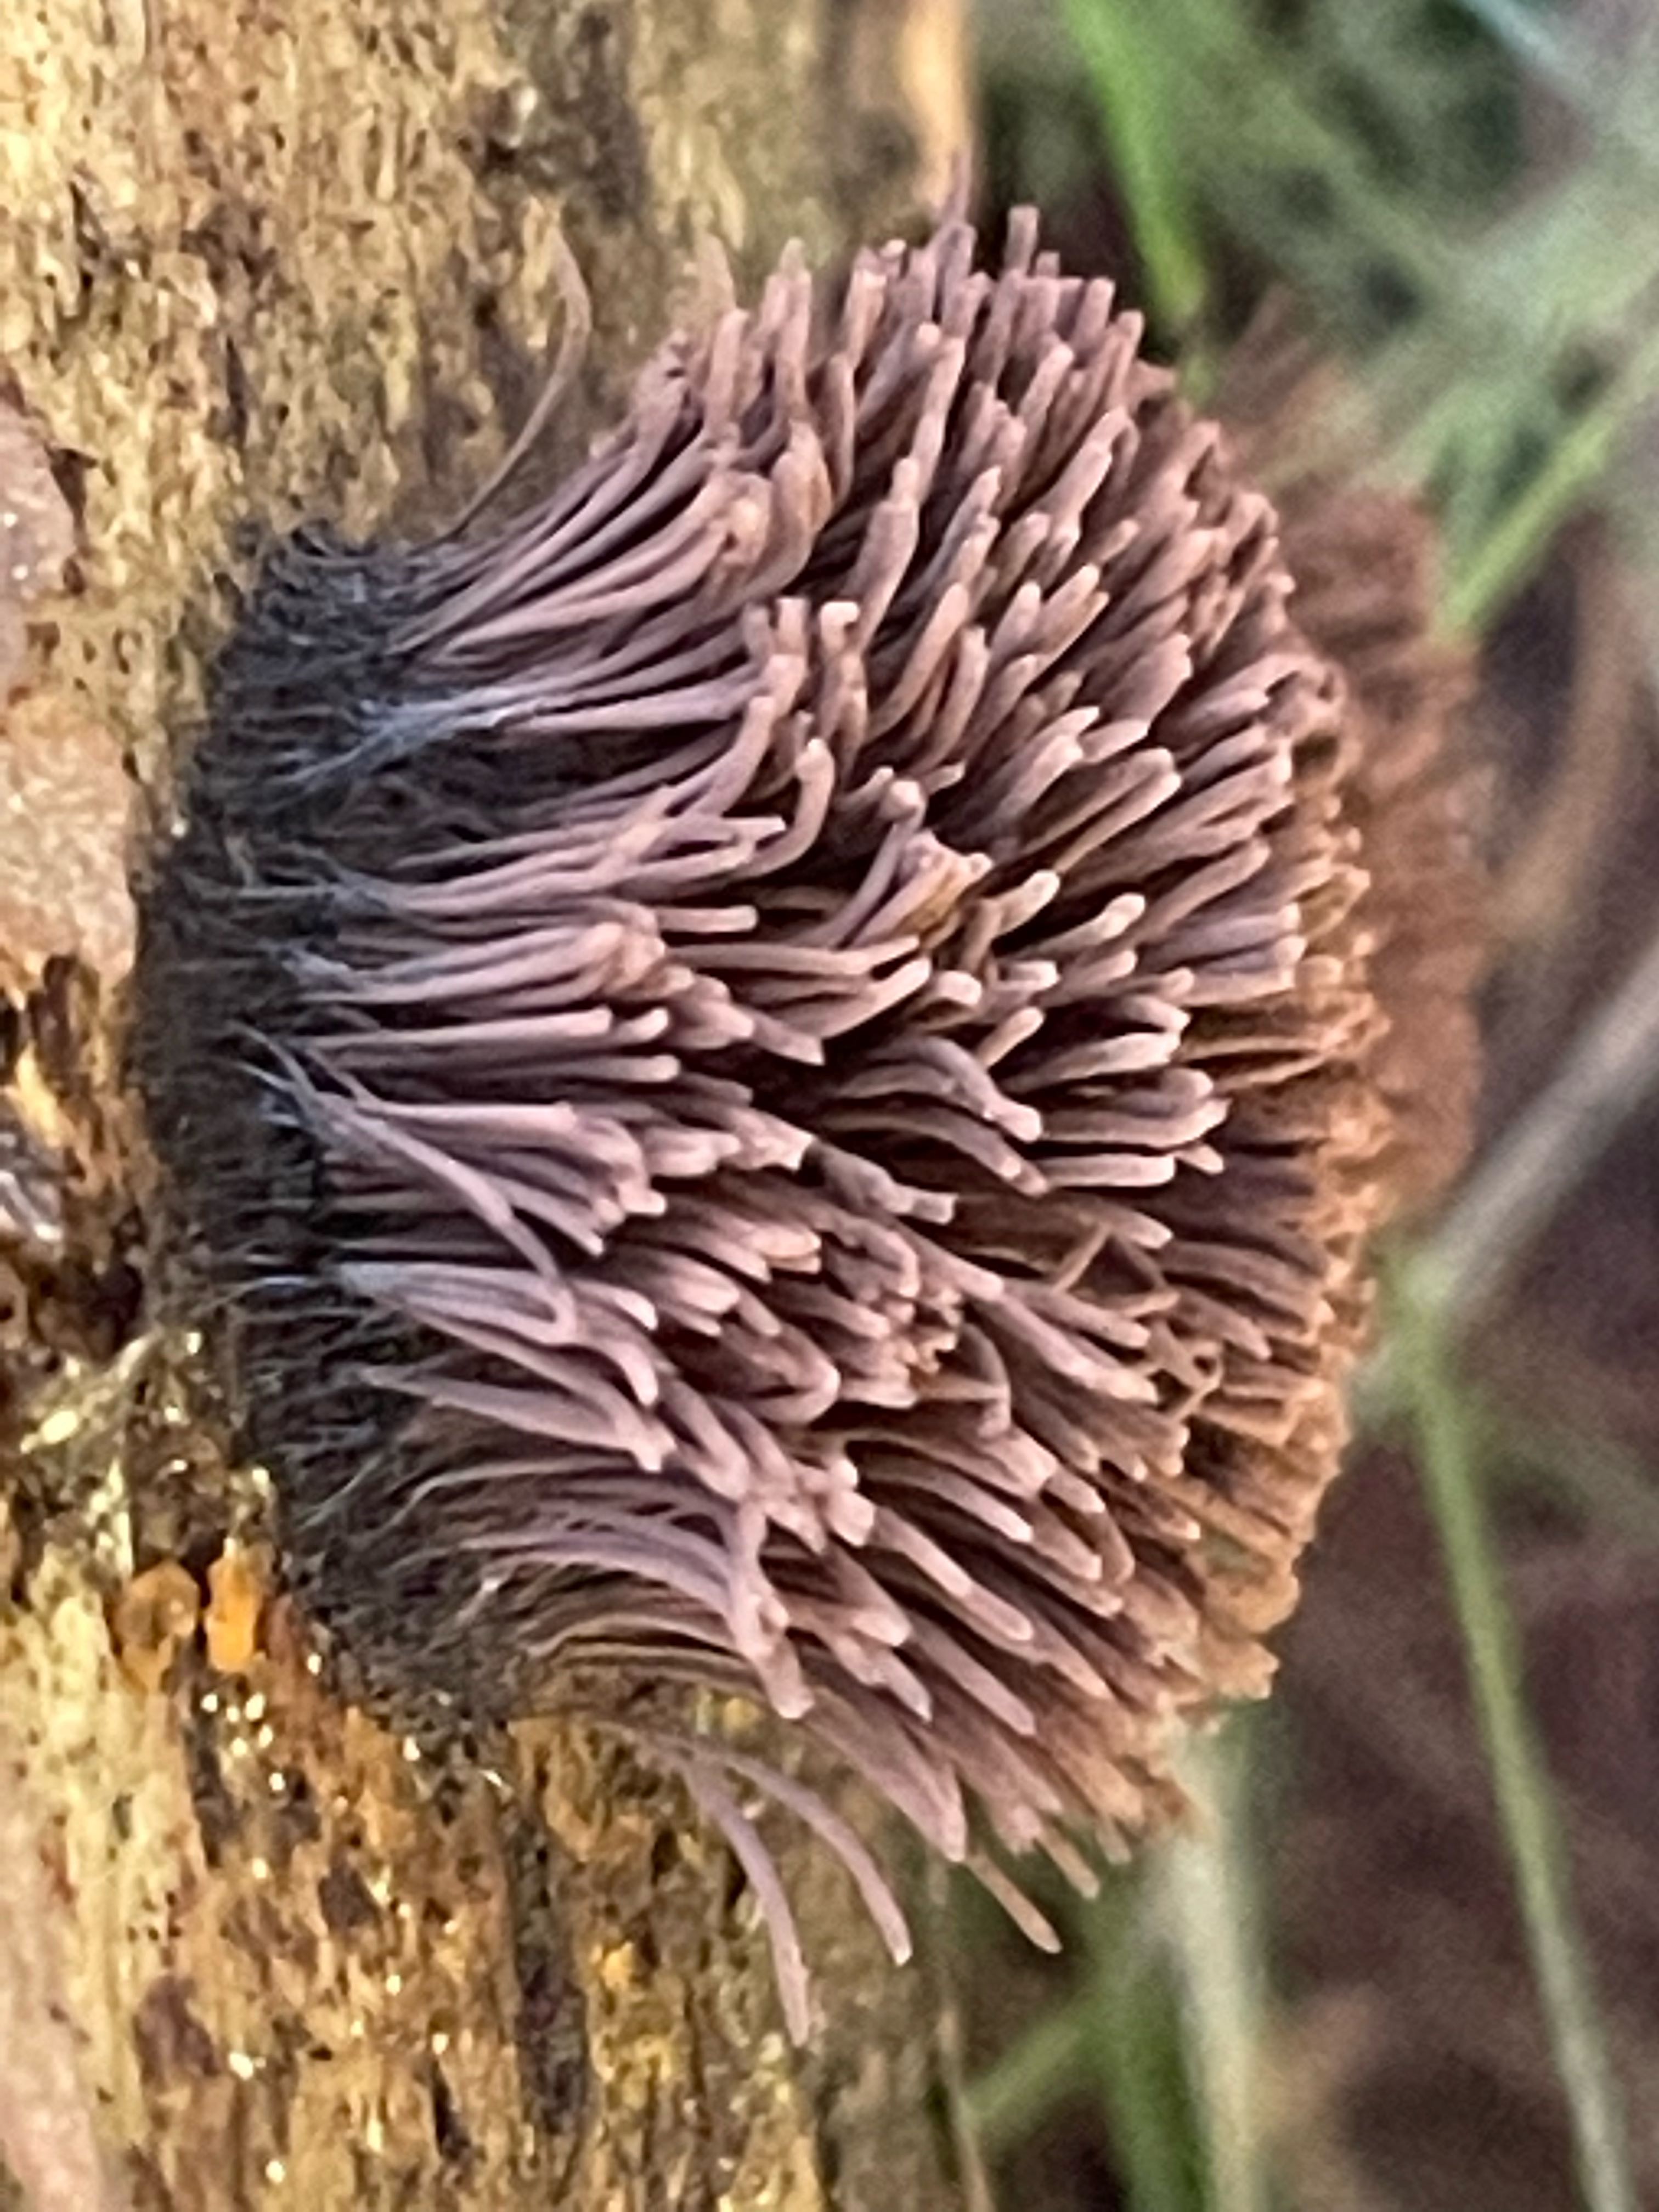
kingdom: Protozoa
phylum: Mycetozoa
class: Myxomycetes
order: Stemonitidales
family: Stemonitidaceae
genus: Stemonitis
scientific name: Stemonitis axifera
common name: rødbrun støvkølle
